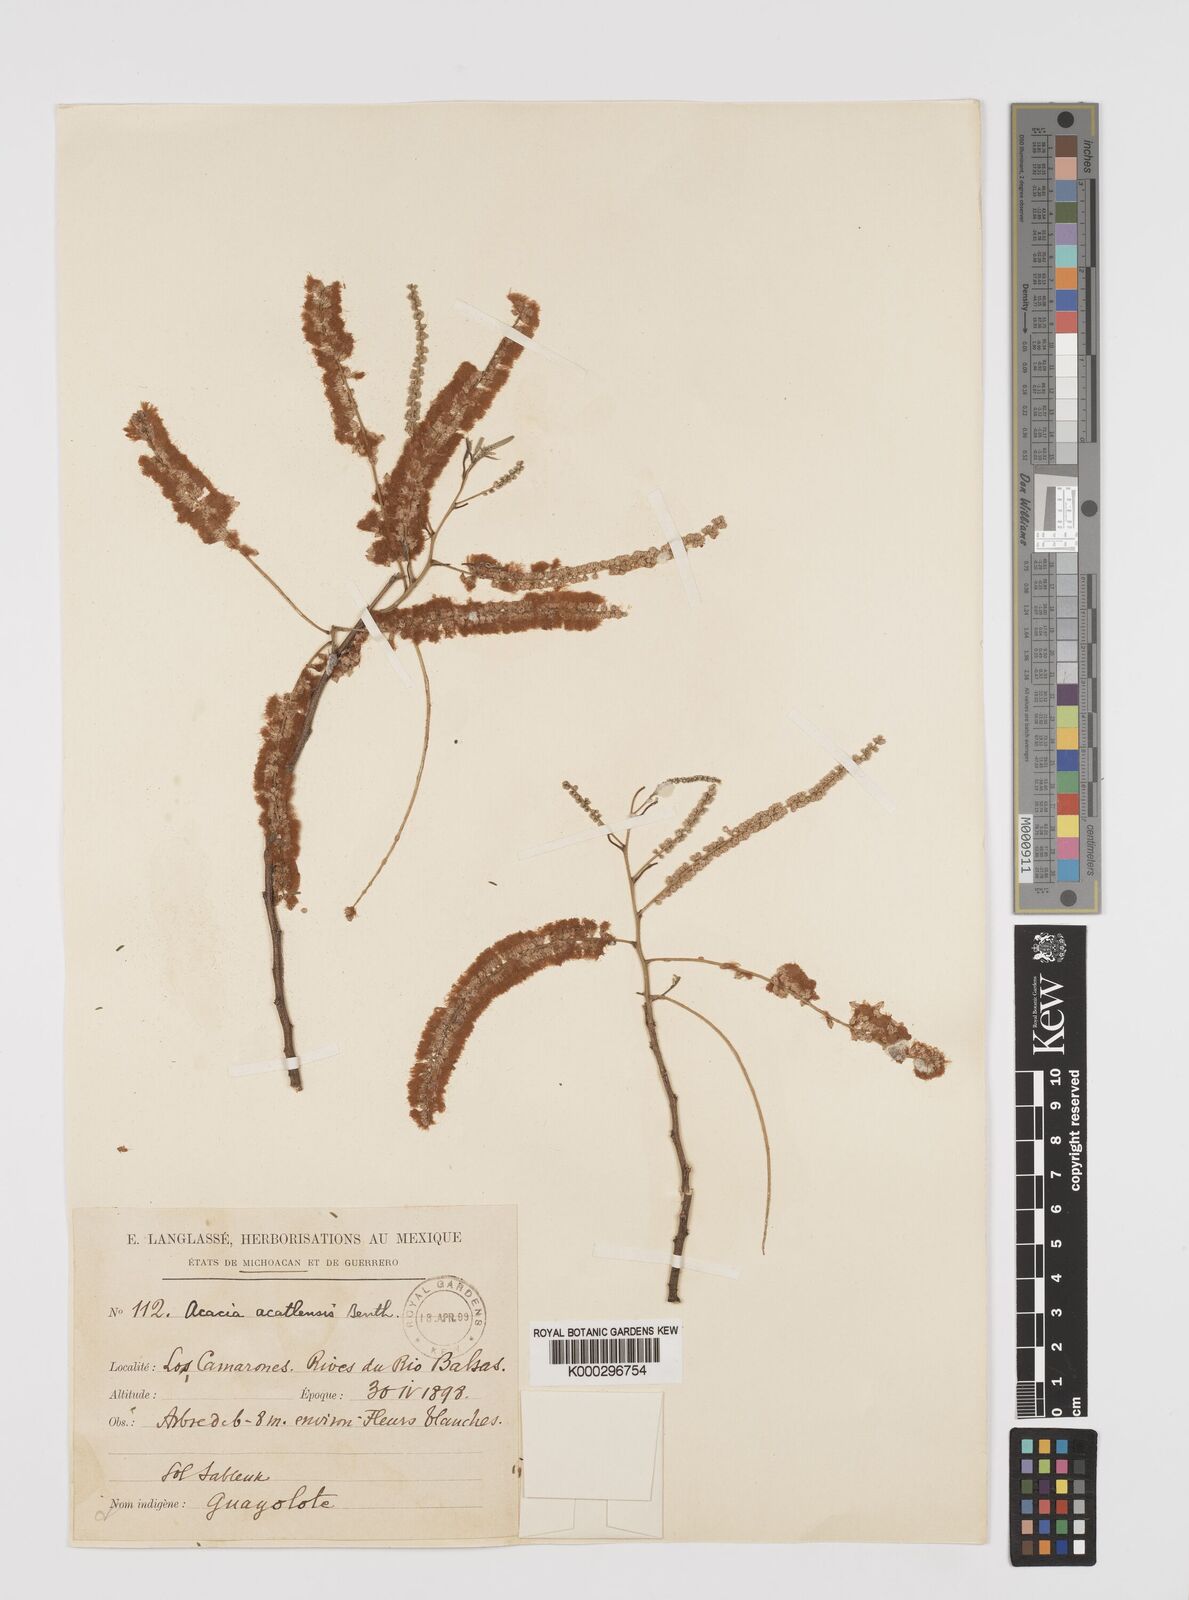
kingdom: Plantae
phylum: Tracheophyta
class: Magnoliopsida
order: Fabales
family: Fabaceae
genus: Mariosousa
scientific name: Mariosousa acatlensis
